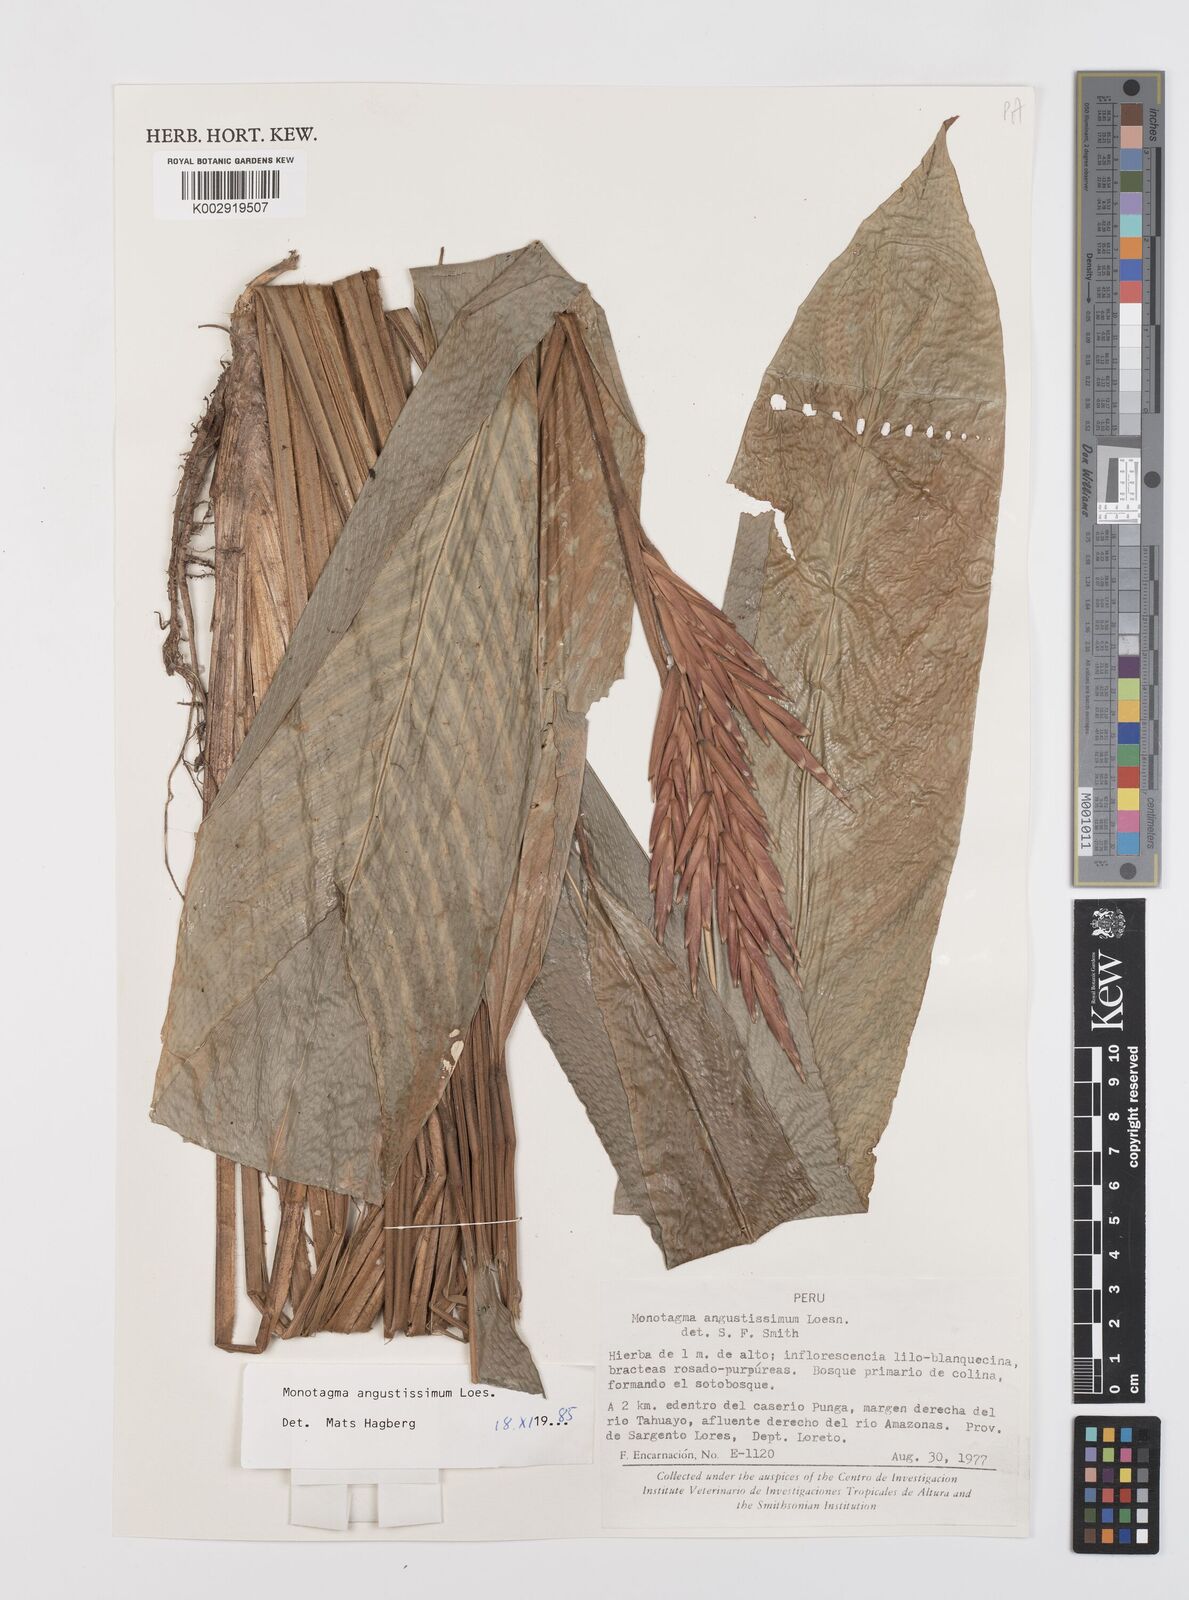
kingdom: Plantae
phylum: Tracheophyta
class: Liliopsida
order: Zingiberales
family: Marantaceae
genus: Monotagma
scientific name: Monotagma angustissimum
